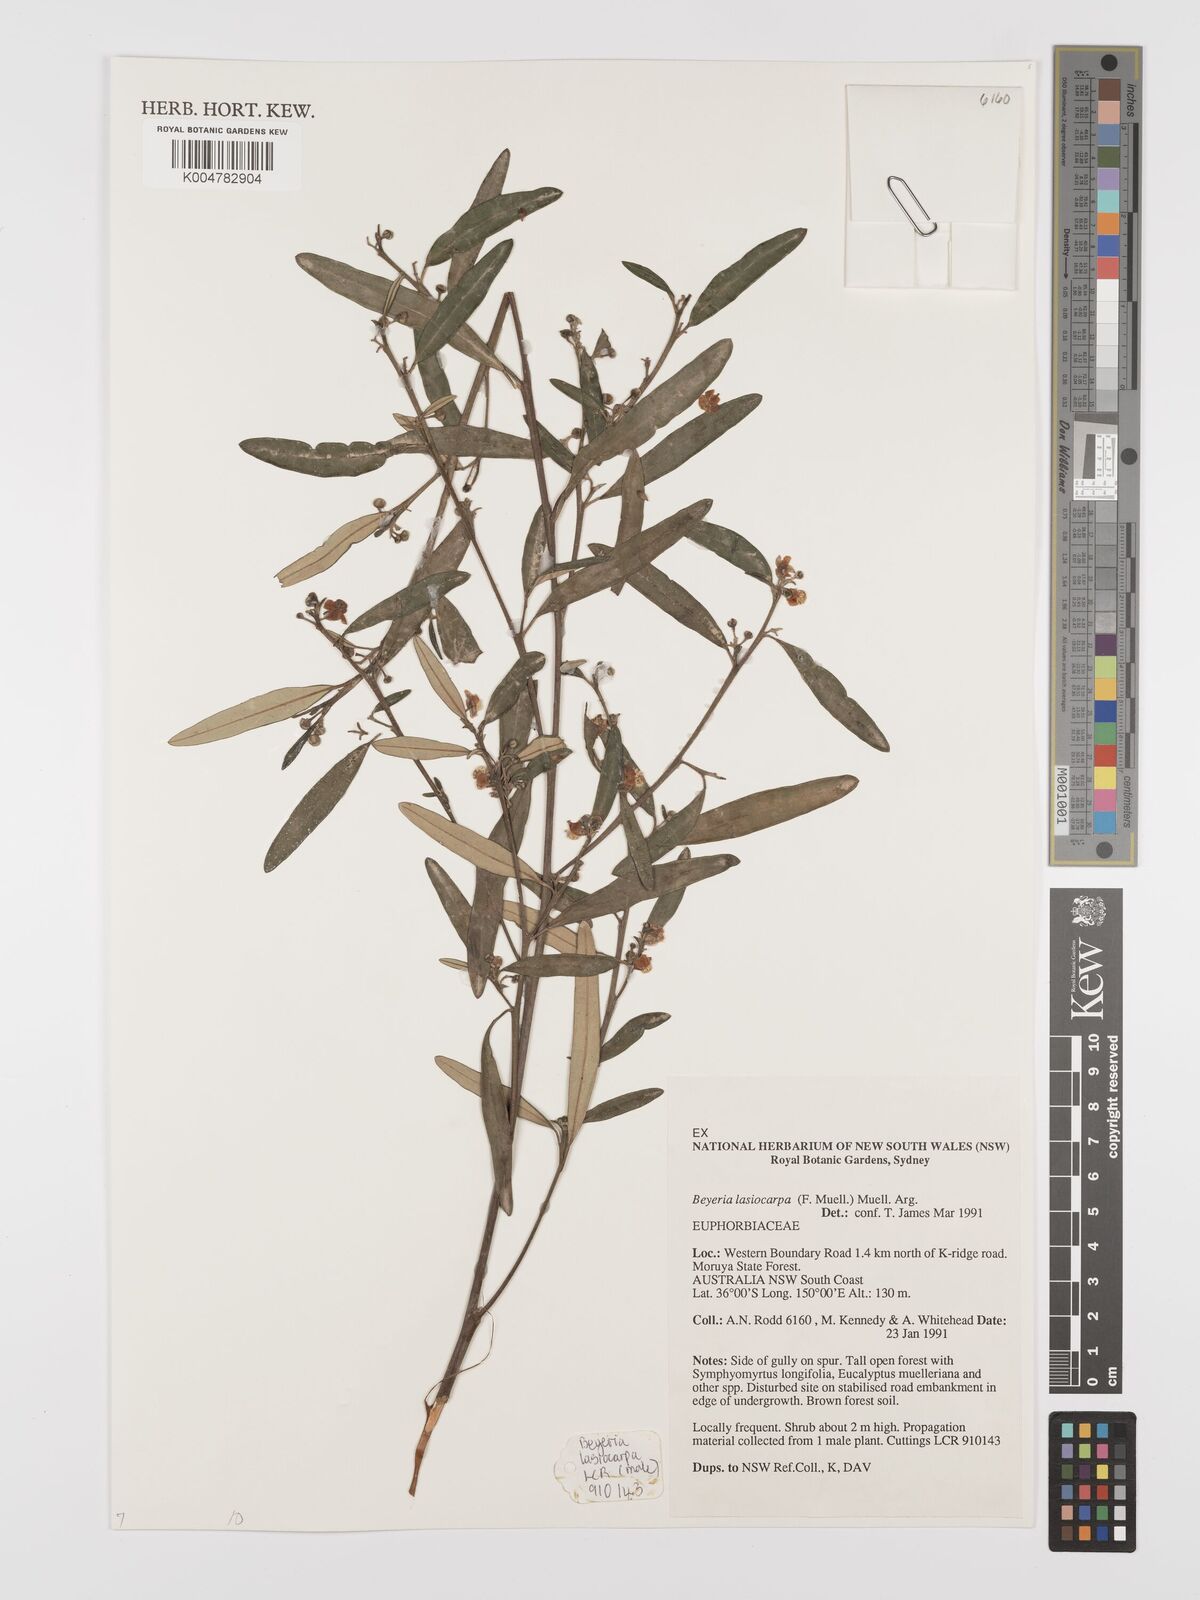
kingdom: Plantae
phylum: Tracheophyta
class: Magnoliopsida
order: Malpighiales
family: Euphorbiaceae
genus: Beyeria
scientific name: Beyeria lasiocarpa
